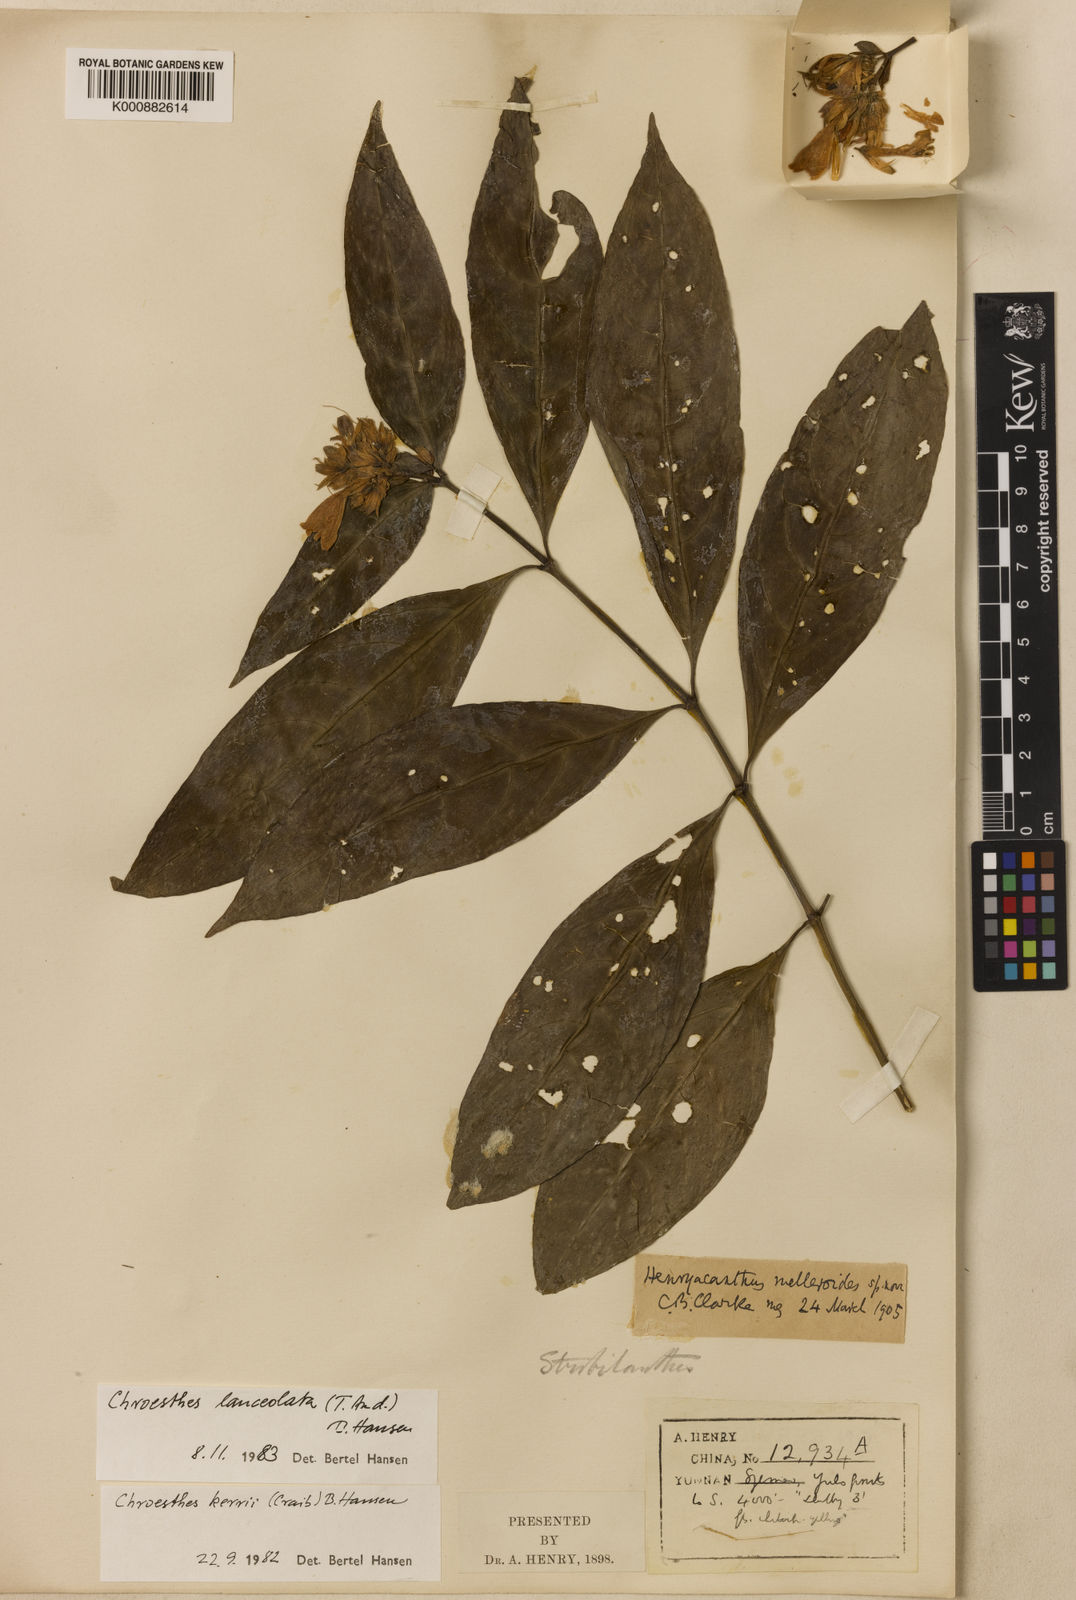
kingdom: Plantae
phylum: Tracheophyta
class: Magnoliopsida
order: Lamiales
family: Acanthaceae
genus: Chroesthes
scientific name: Chroesthes lanceolata
